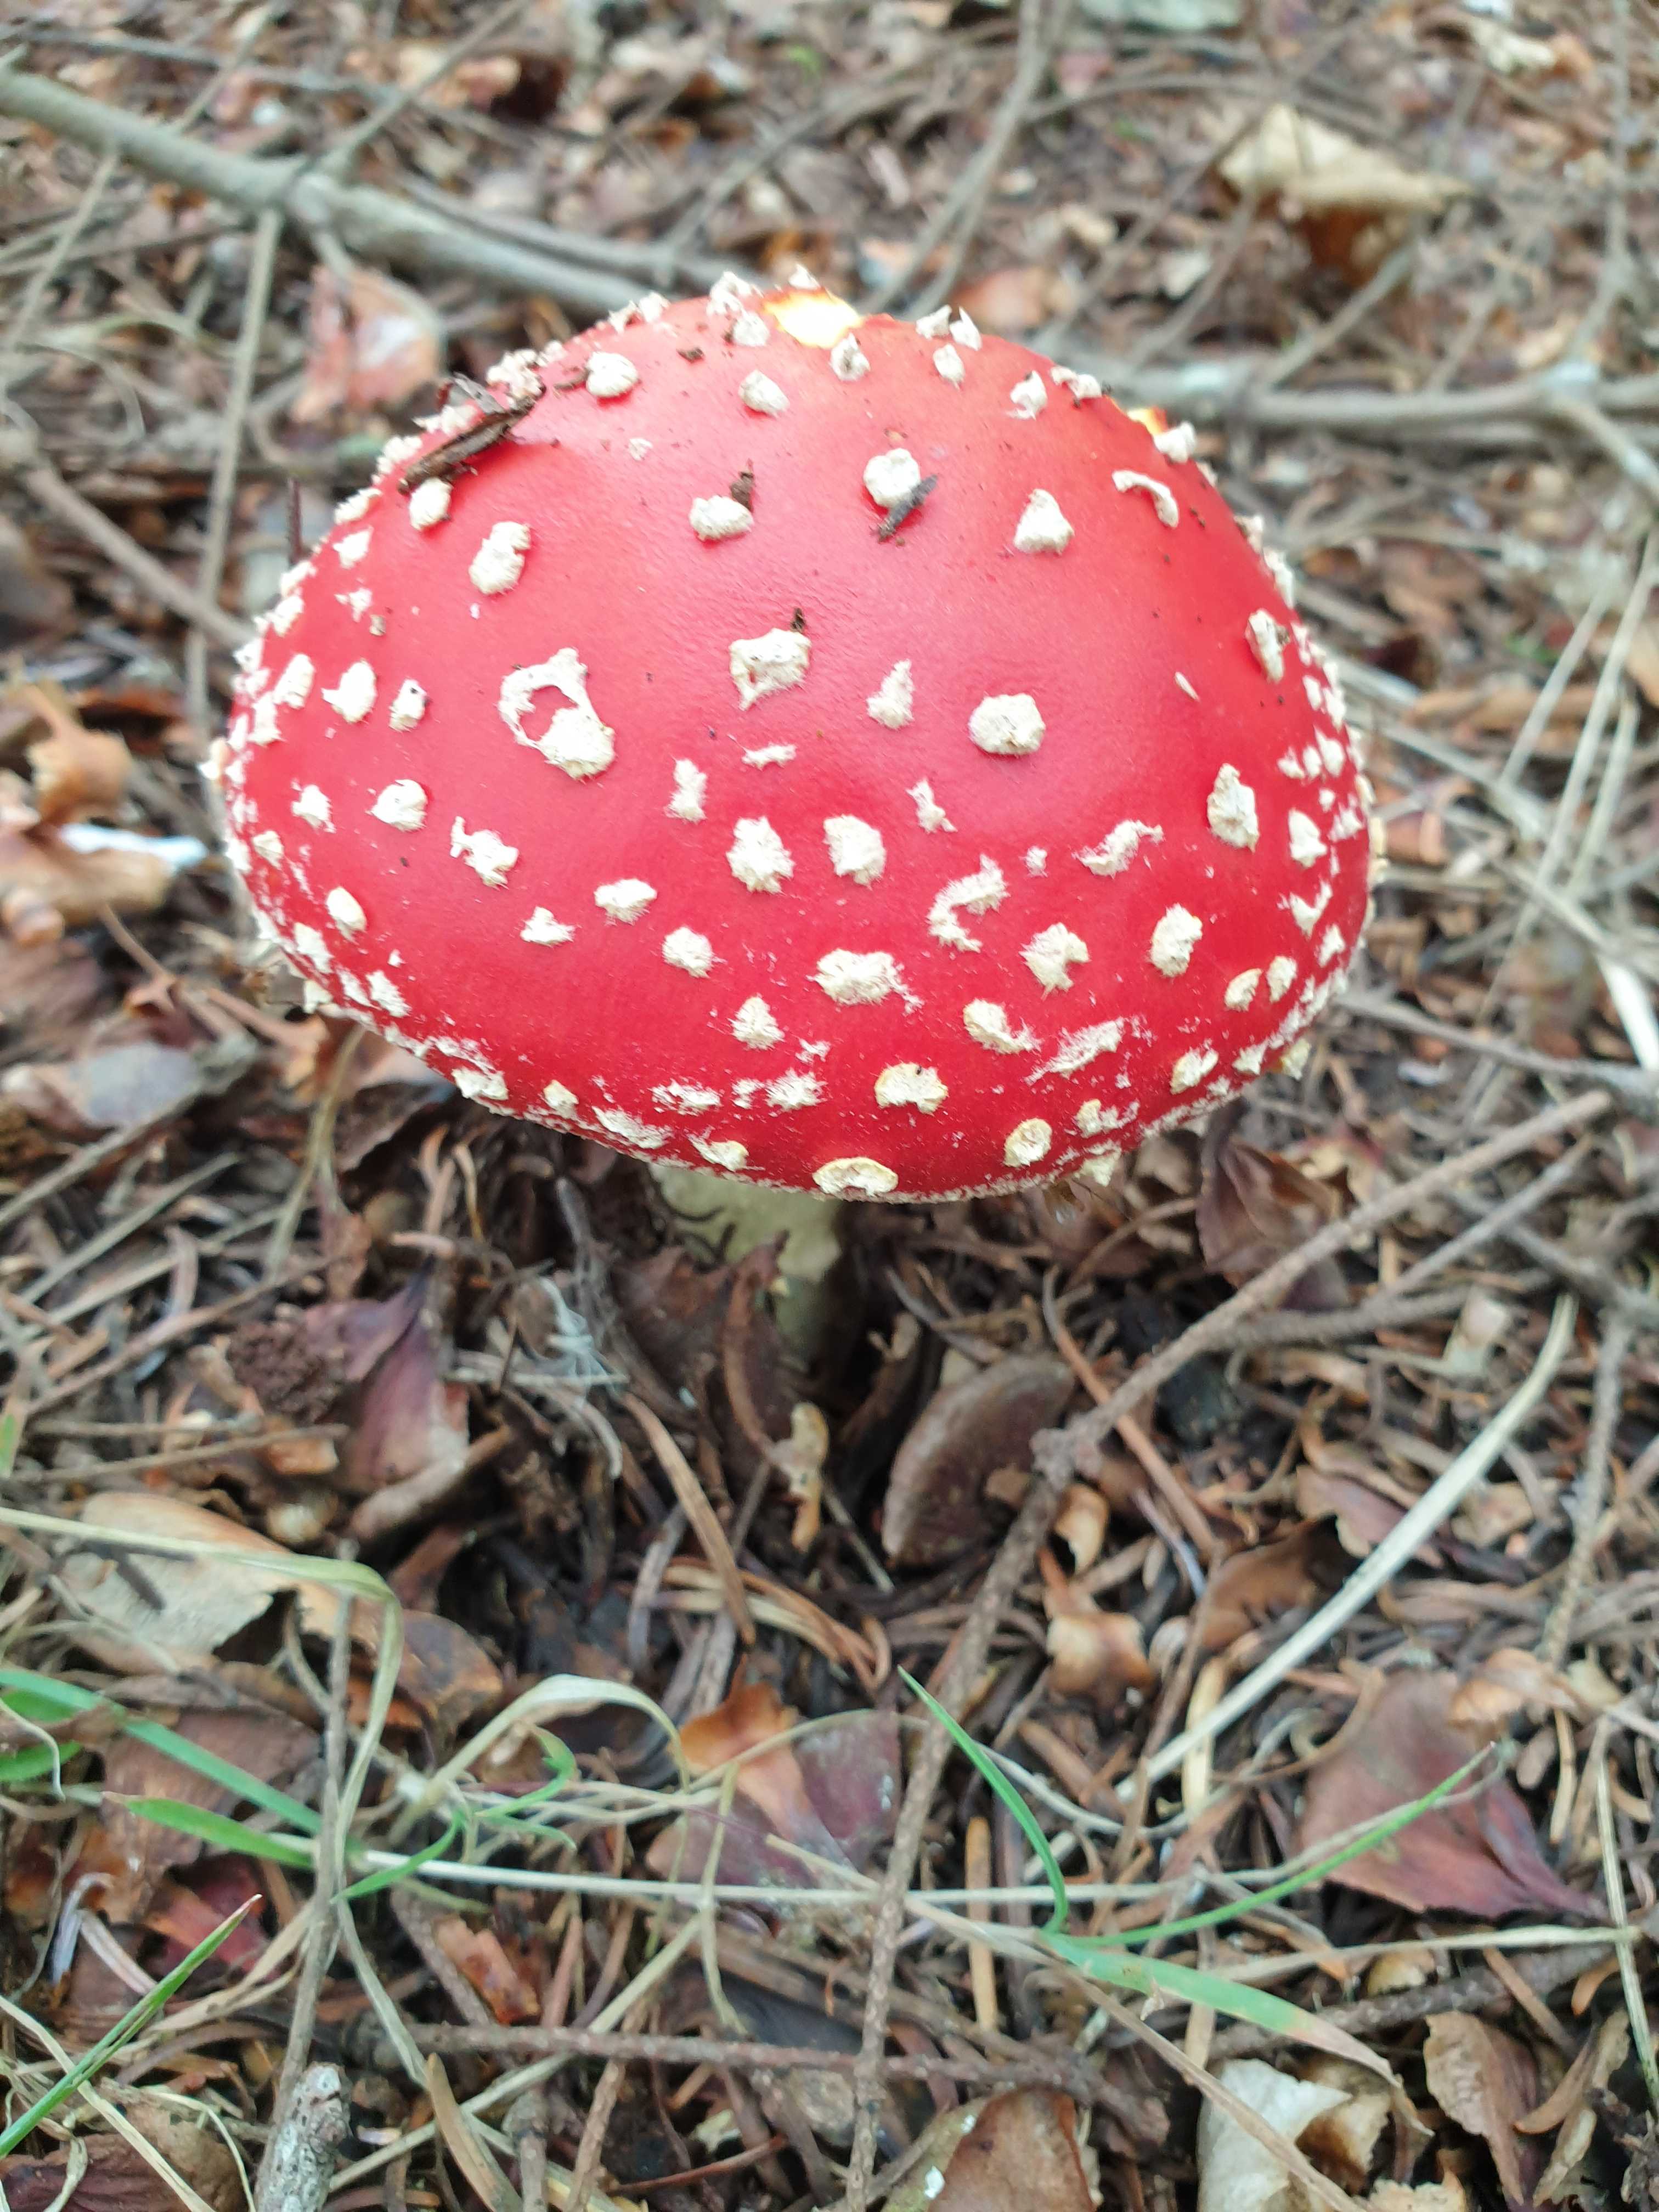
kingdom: Fungi
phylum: Basidiomycota
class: Agaricomycetes
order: Agaricales
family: Amanitaceae
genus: Amanita
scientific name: Amanita muscaria
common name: rød fluesvamp
